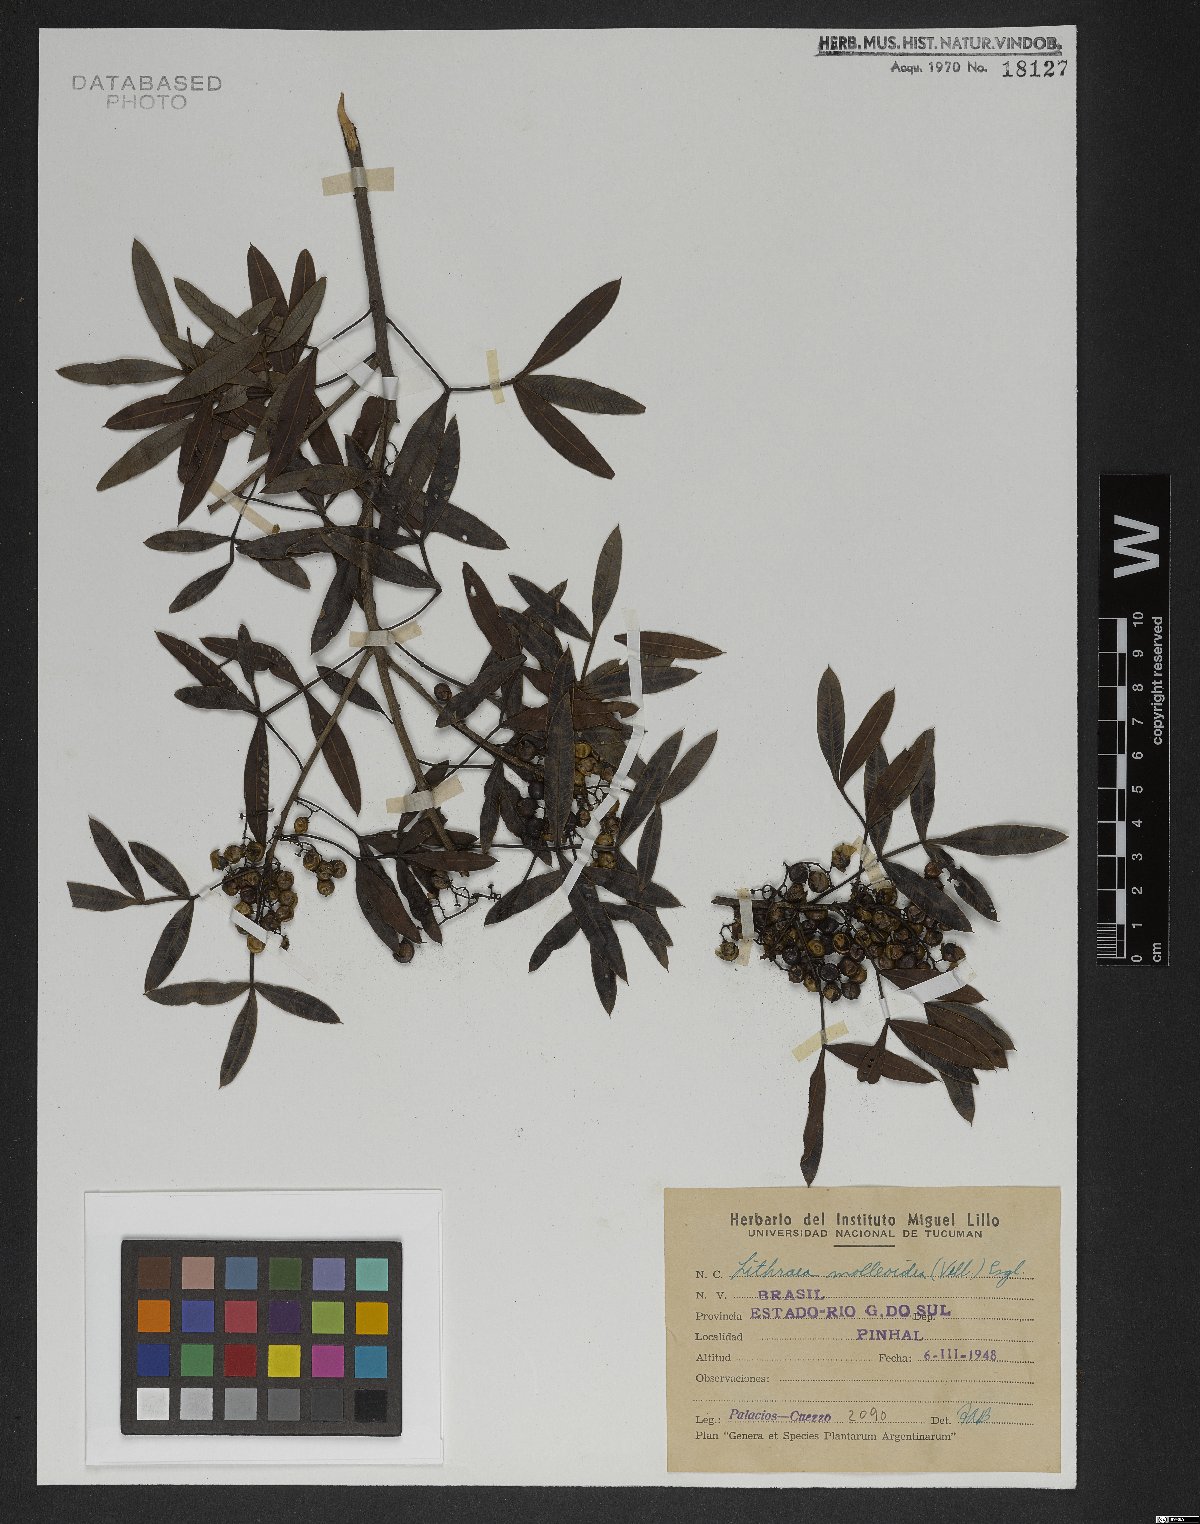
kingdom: Plantae
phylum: Tracheophyta
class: Magnoliopsida
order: Sapindales
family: Anacardiaceae
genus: Lithraea
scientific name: Lithraea molleoides
